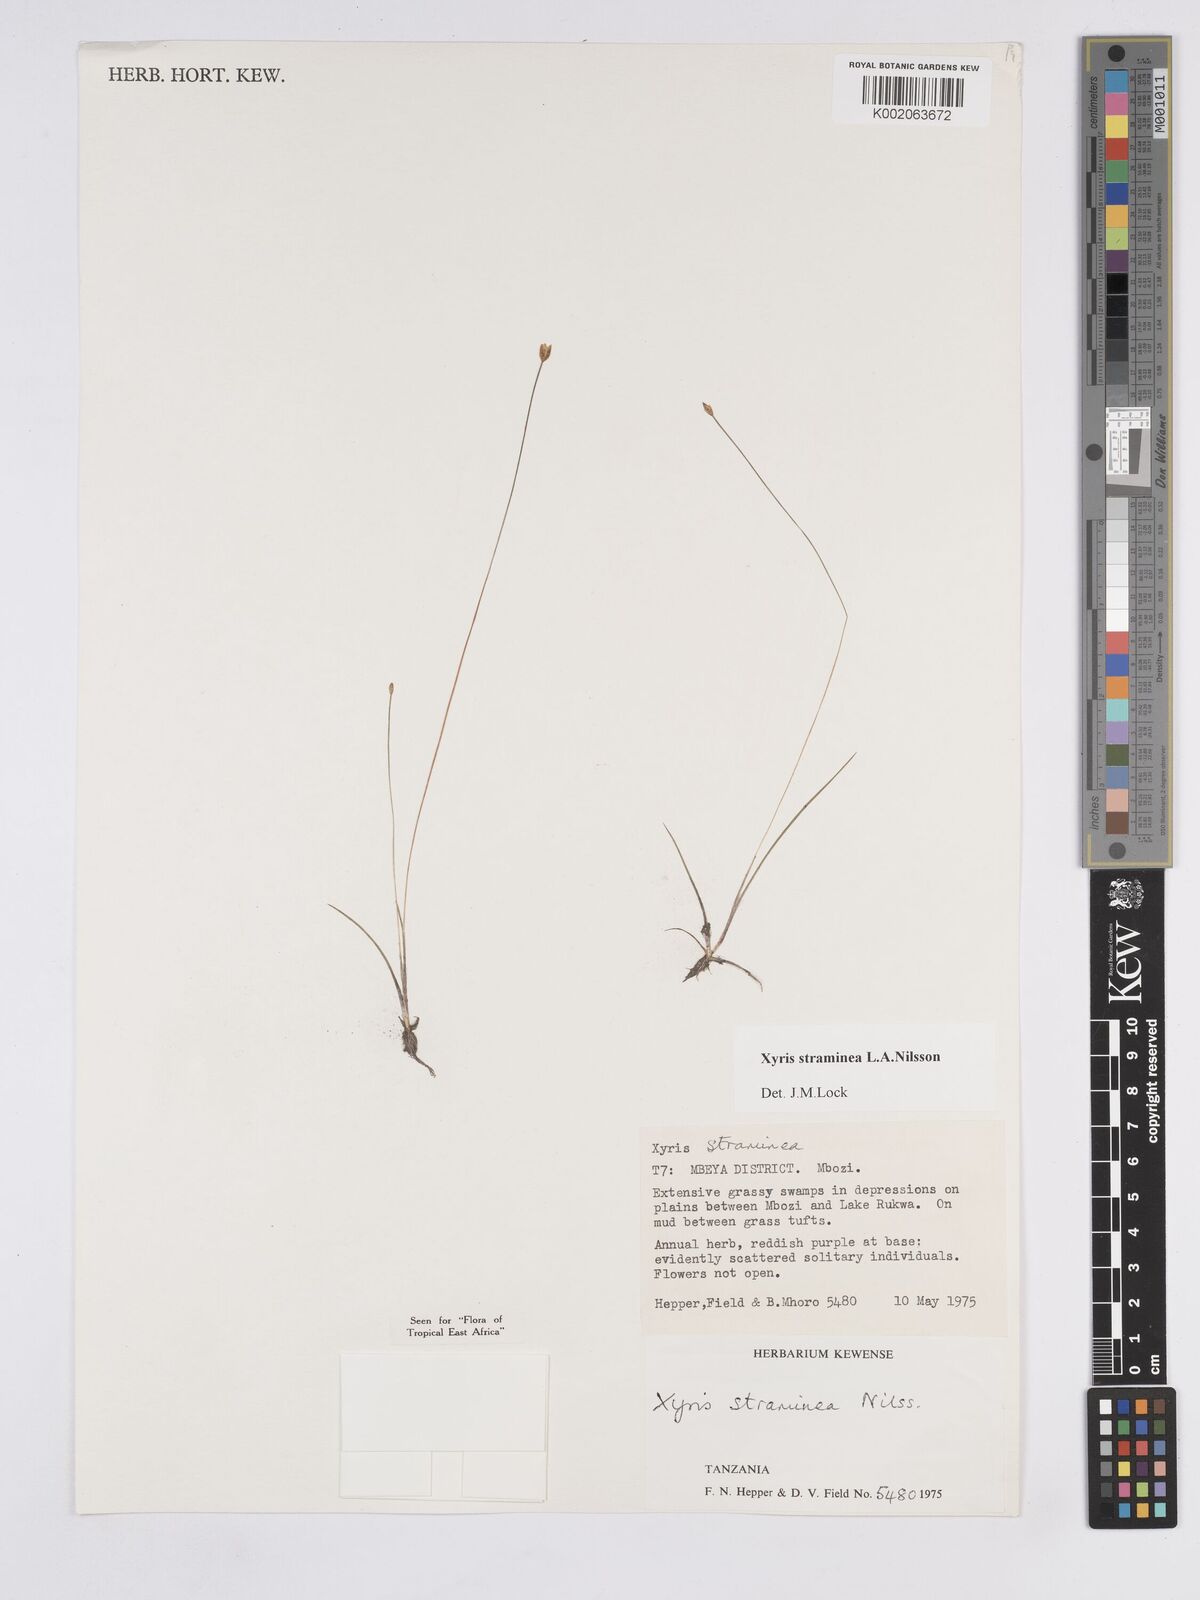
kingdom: Plantae
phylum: Tracheophyta
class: Liliopsida
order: Poales
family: Xyridaceae
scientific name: Xyridaceae
